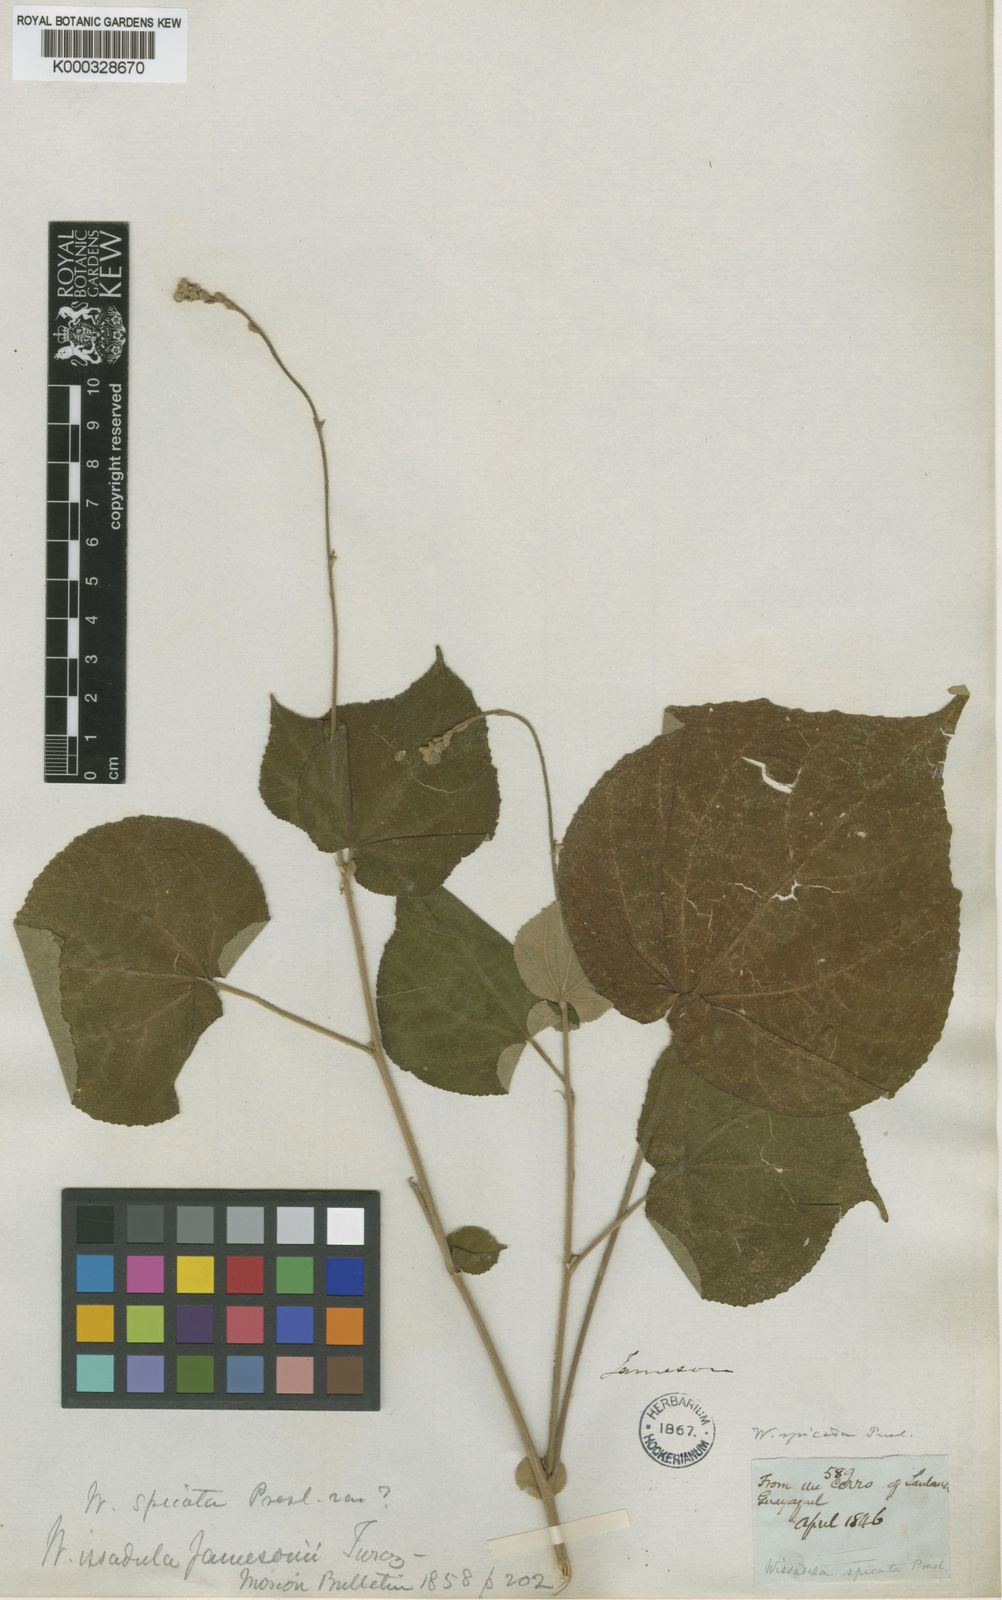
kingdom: Plantae
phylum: Tracheophyta
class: Magnoliopsida
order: Malvales
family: Malvaceae
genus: Allobriquetia
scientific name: Allobriquetia spicata
